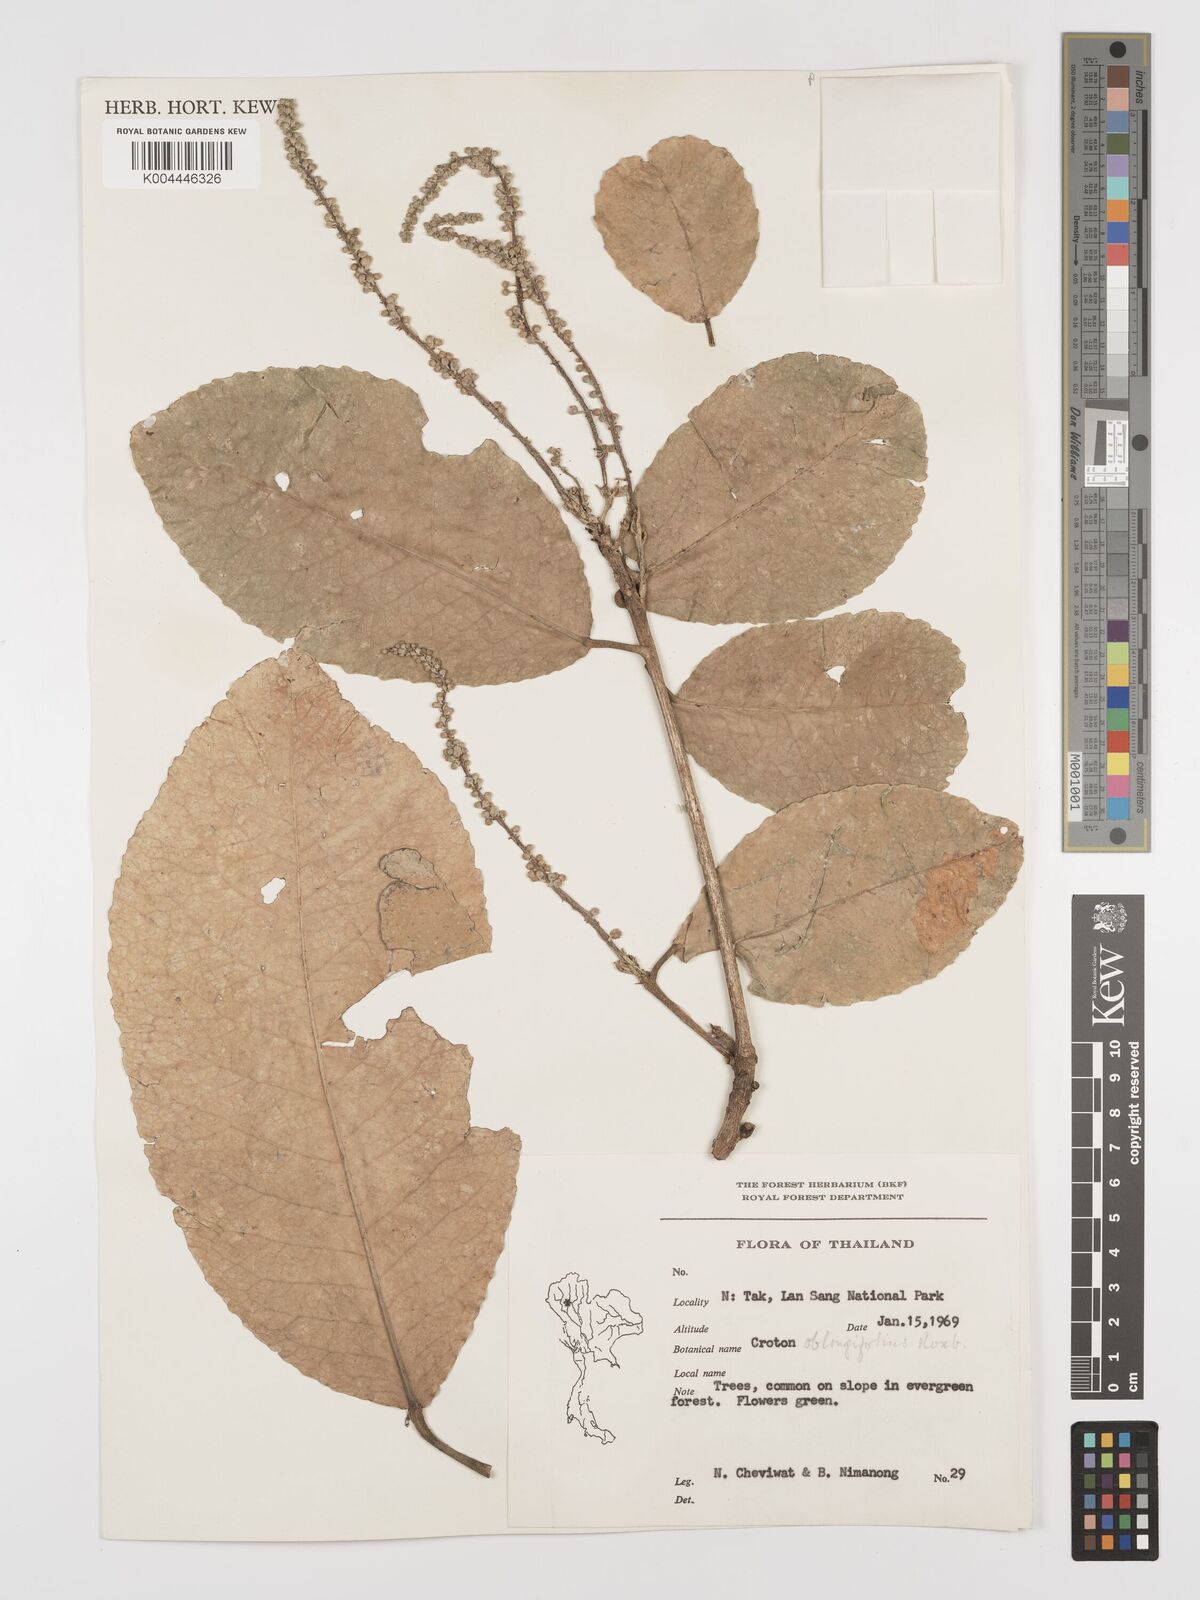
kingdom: Plantae
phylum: Tracheophyta
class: Magnoliopsida
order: Malpighiales
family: Euphorbiaceae
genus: Baliospermum
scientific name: Baliospermum solanifolium
